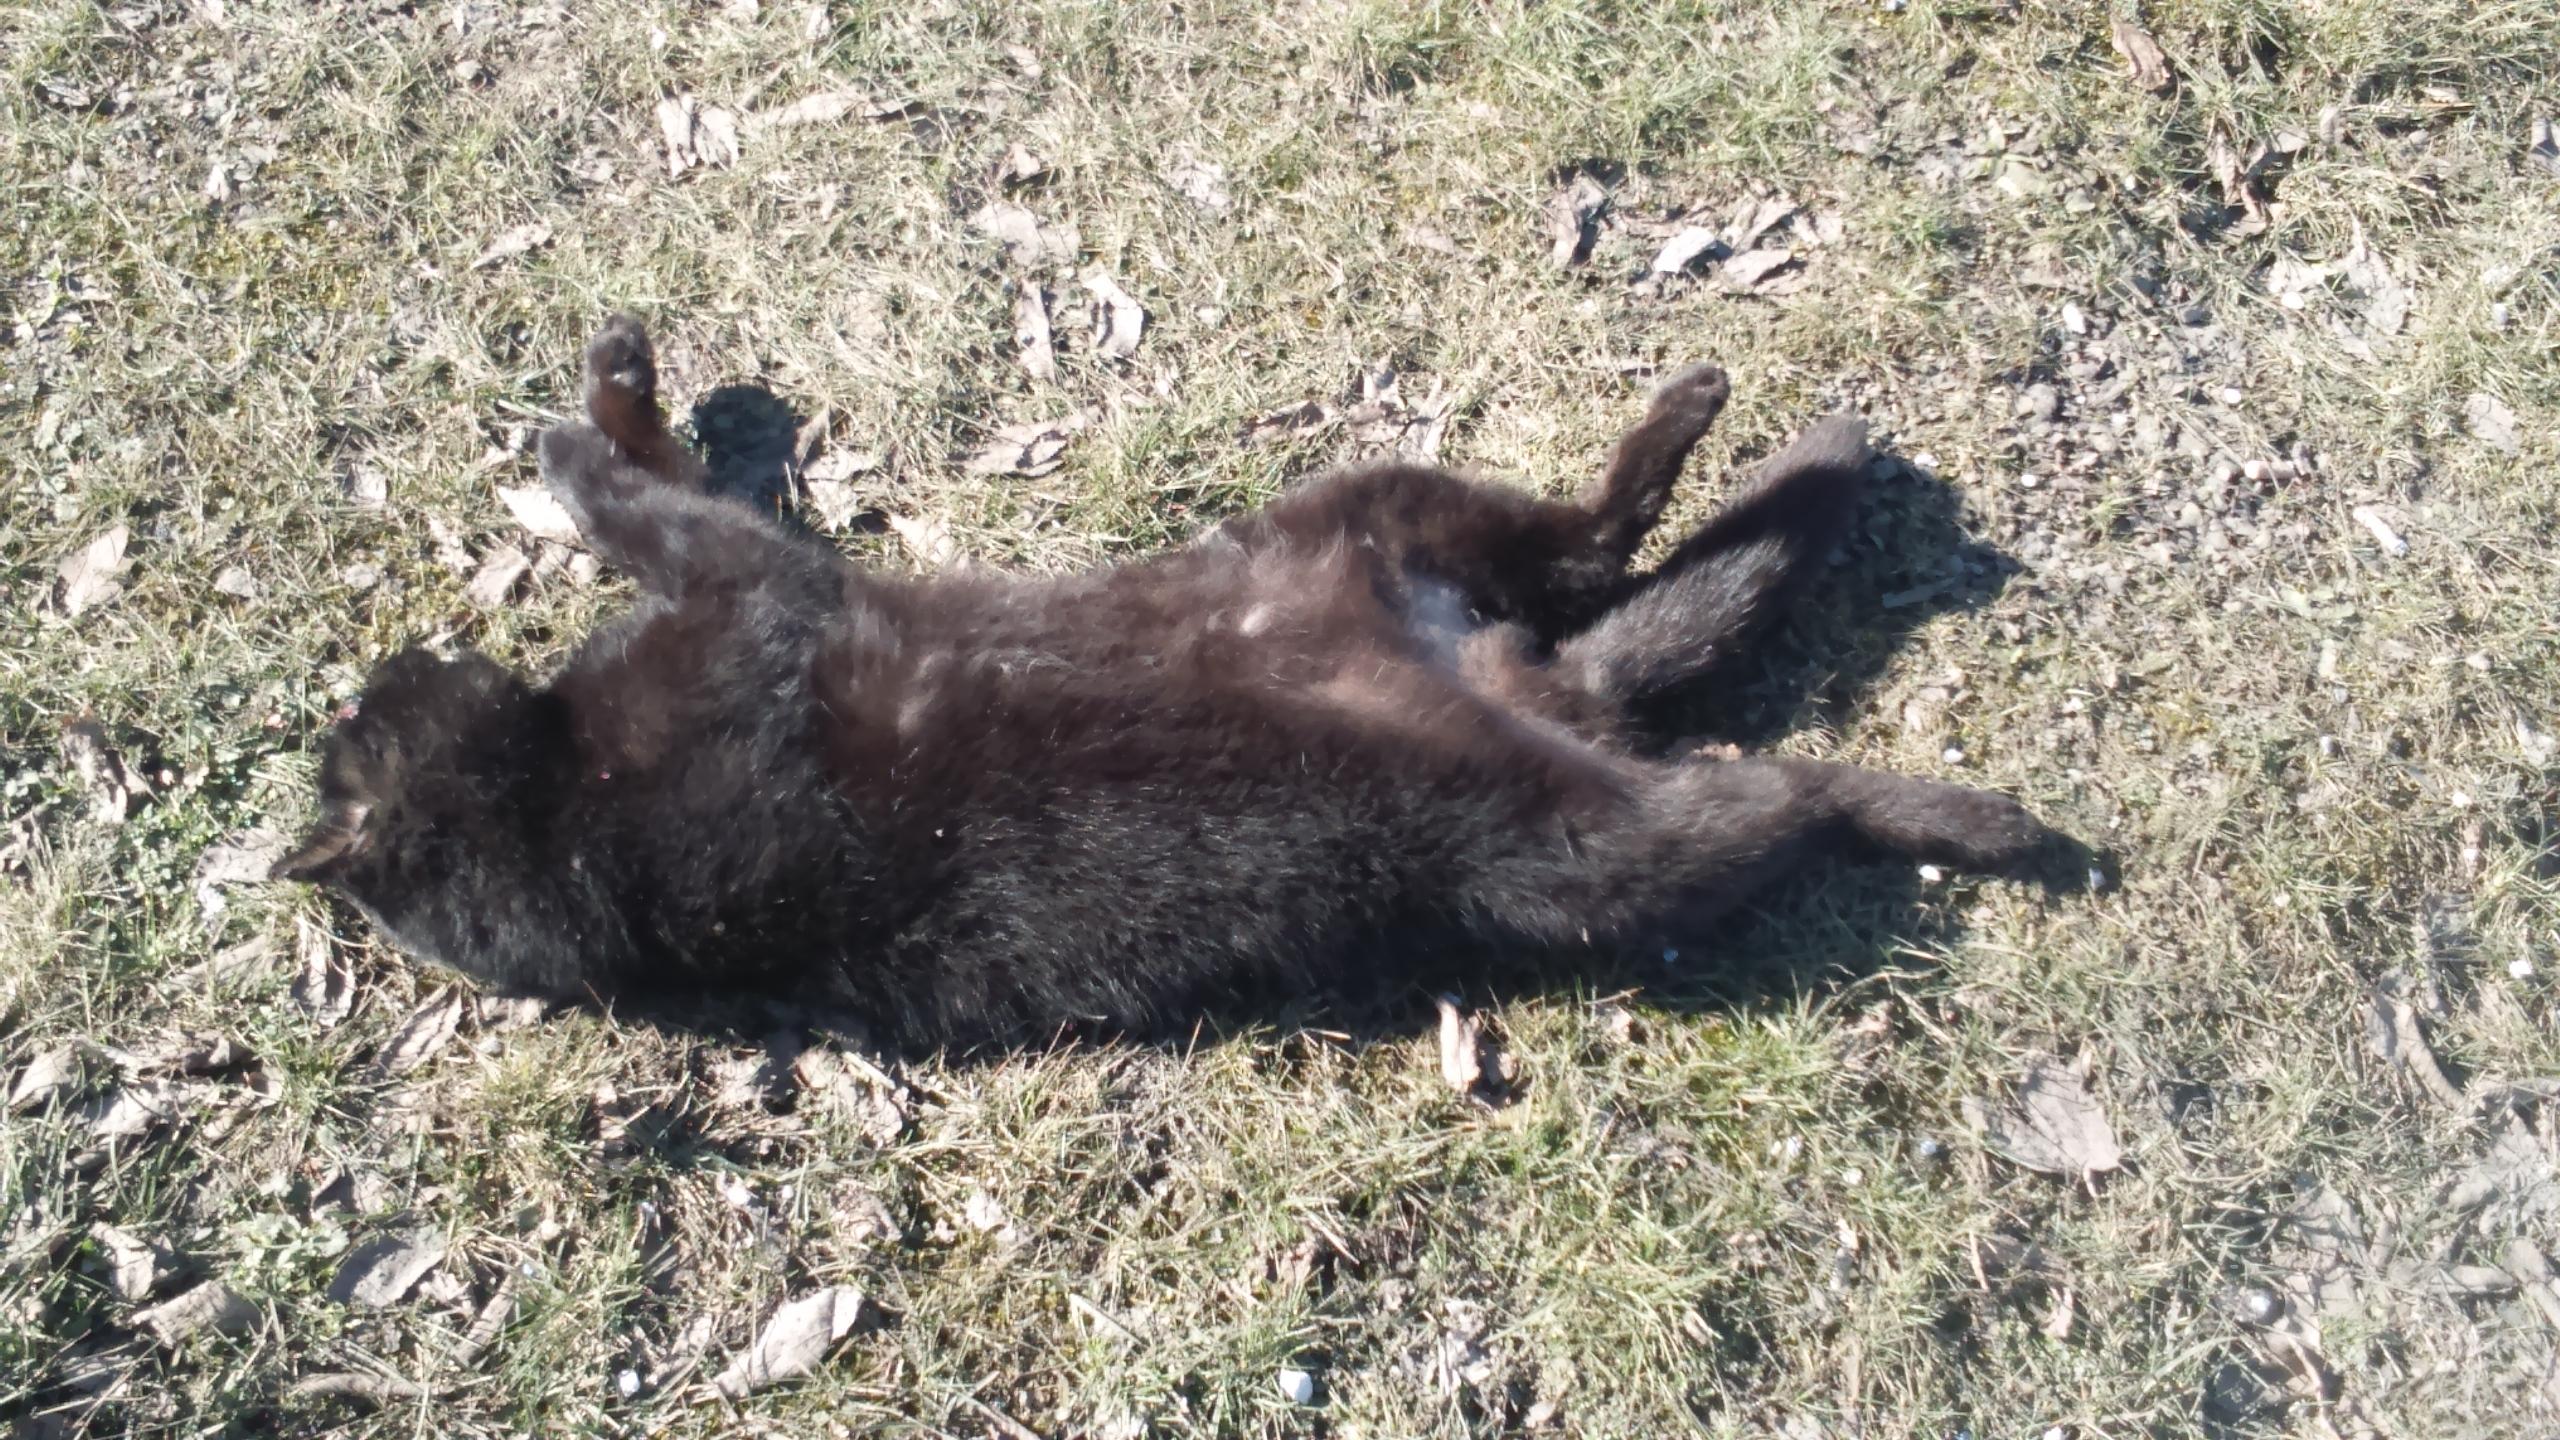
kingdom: Animalia
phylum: Chordata
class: Mammalia
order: Carnivora
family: Felidae
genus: Felis
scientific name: Felis catus
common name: Domestic cat
